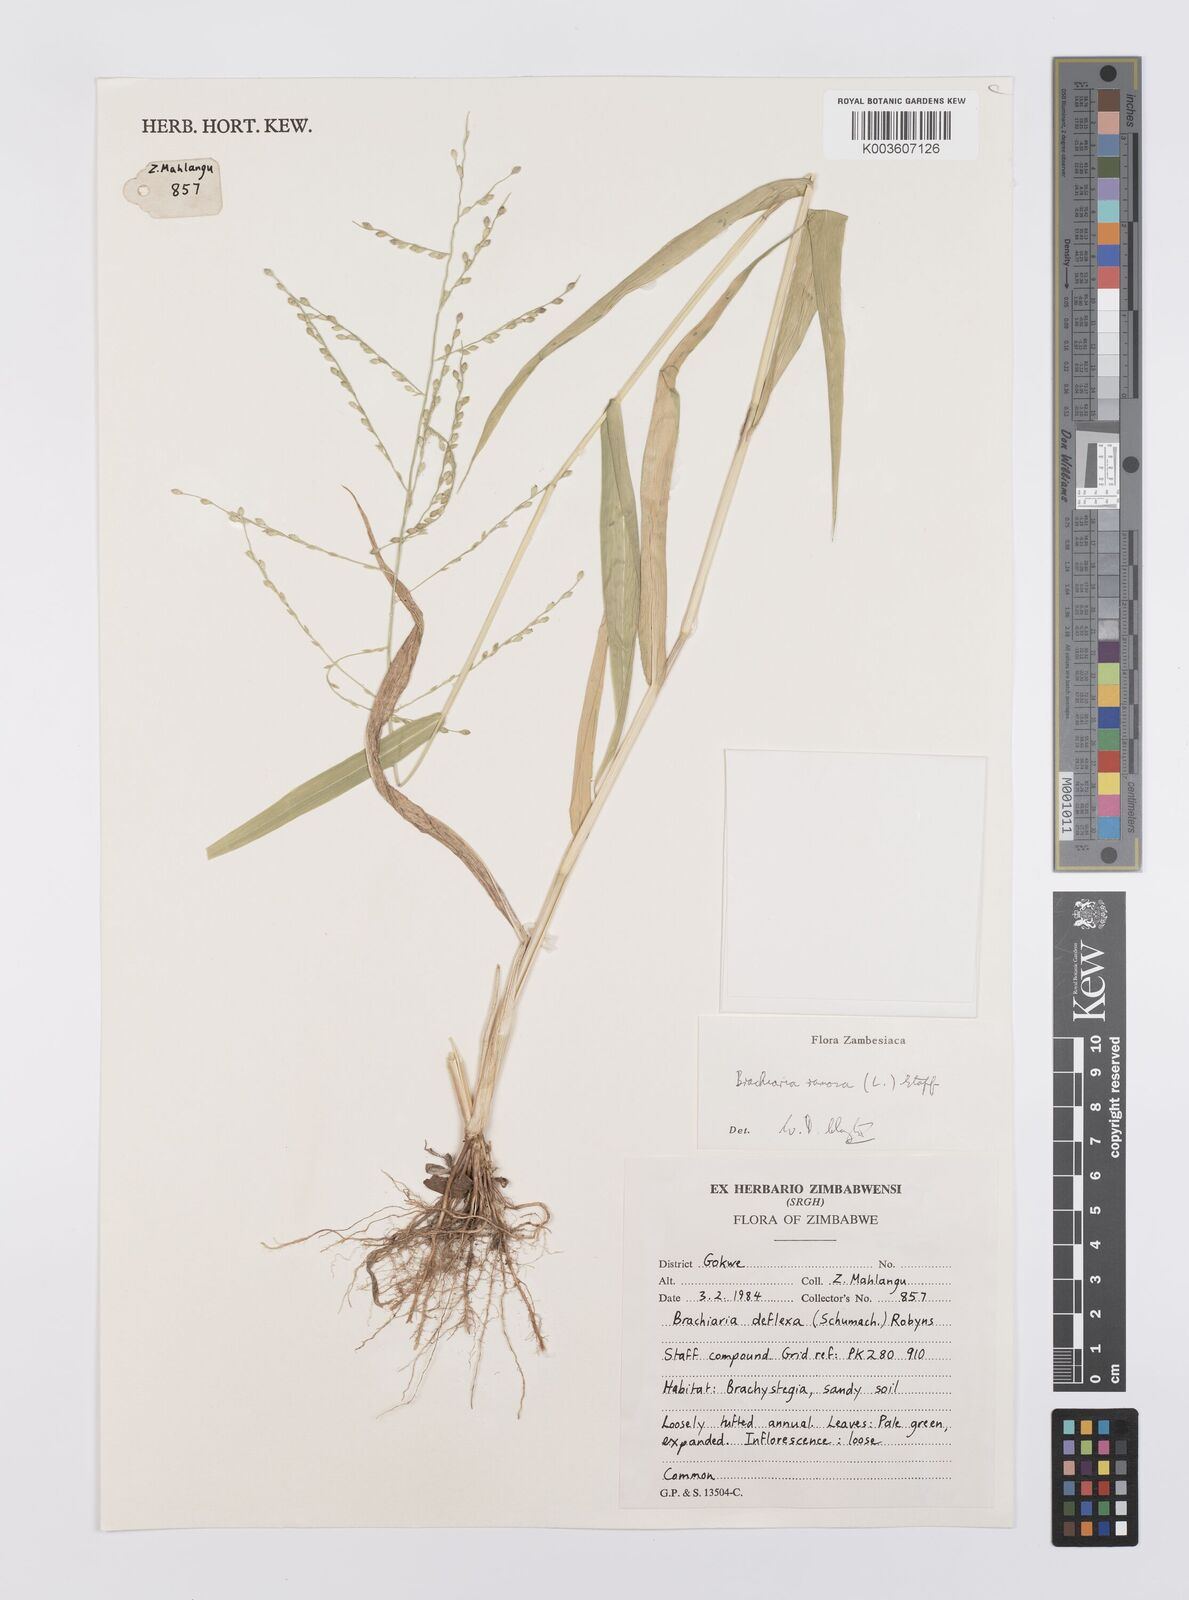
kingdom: Plantae
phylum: Tracheophyta
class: Liliopsida
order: Poales
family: Poaceae
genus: Urochloa
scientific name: Urochloa ramosa
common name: Browntop millet
